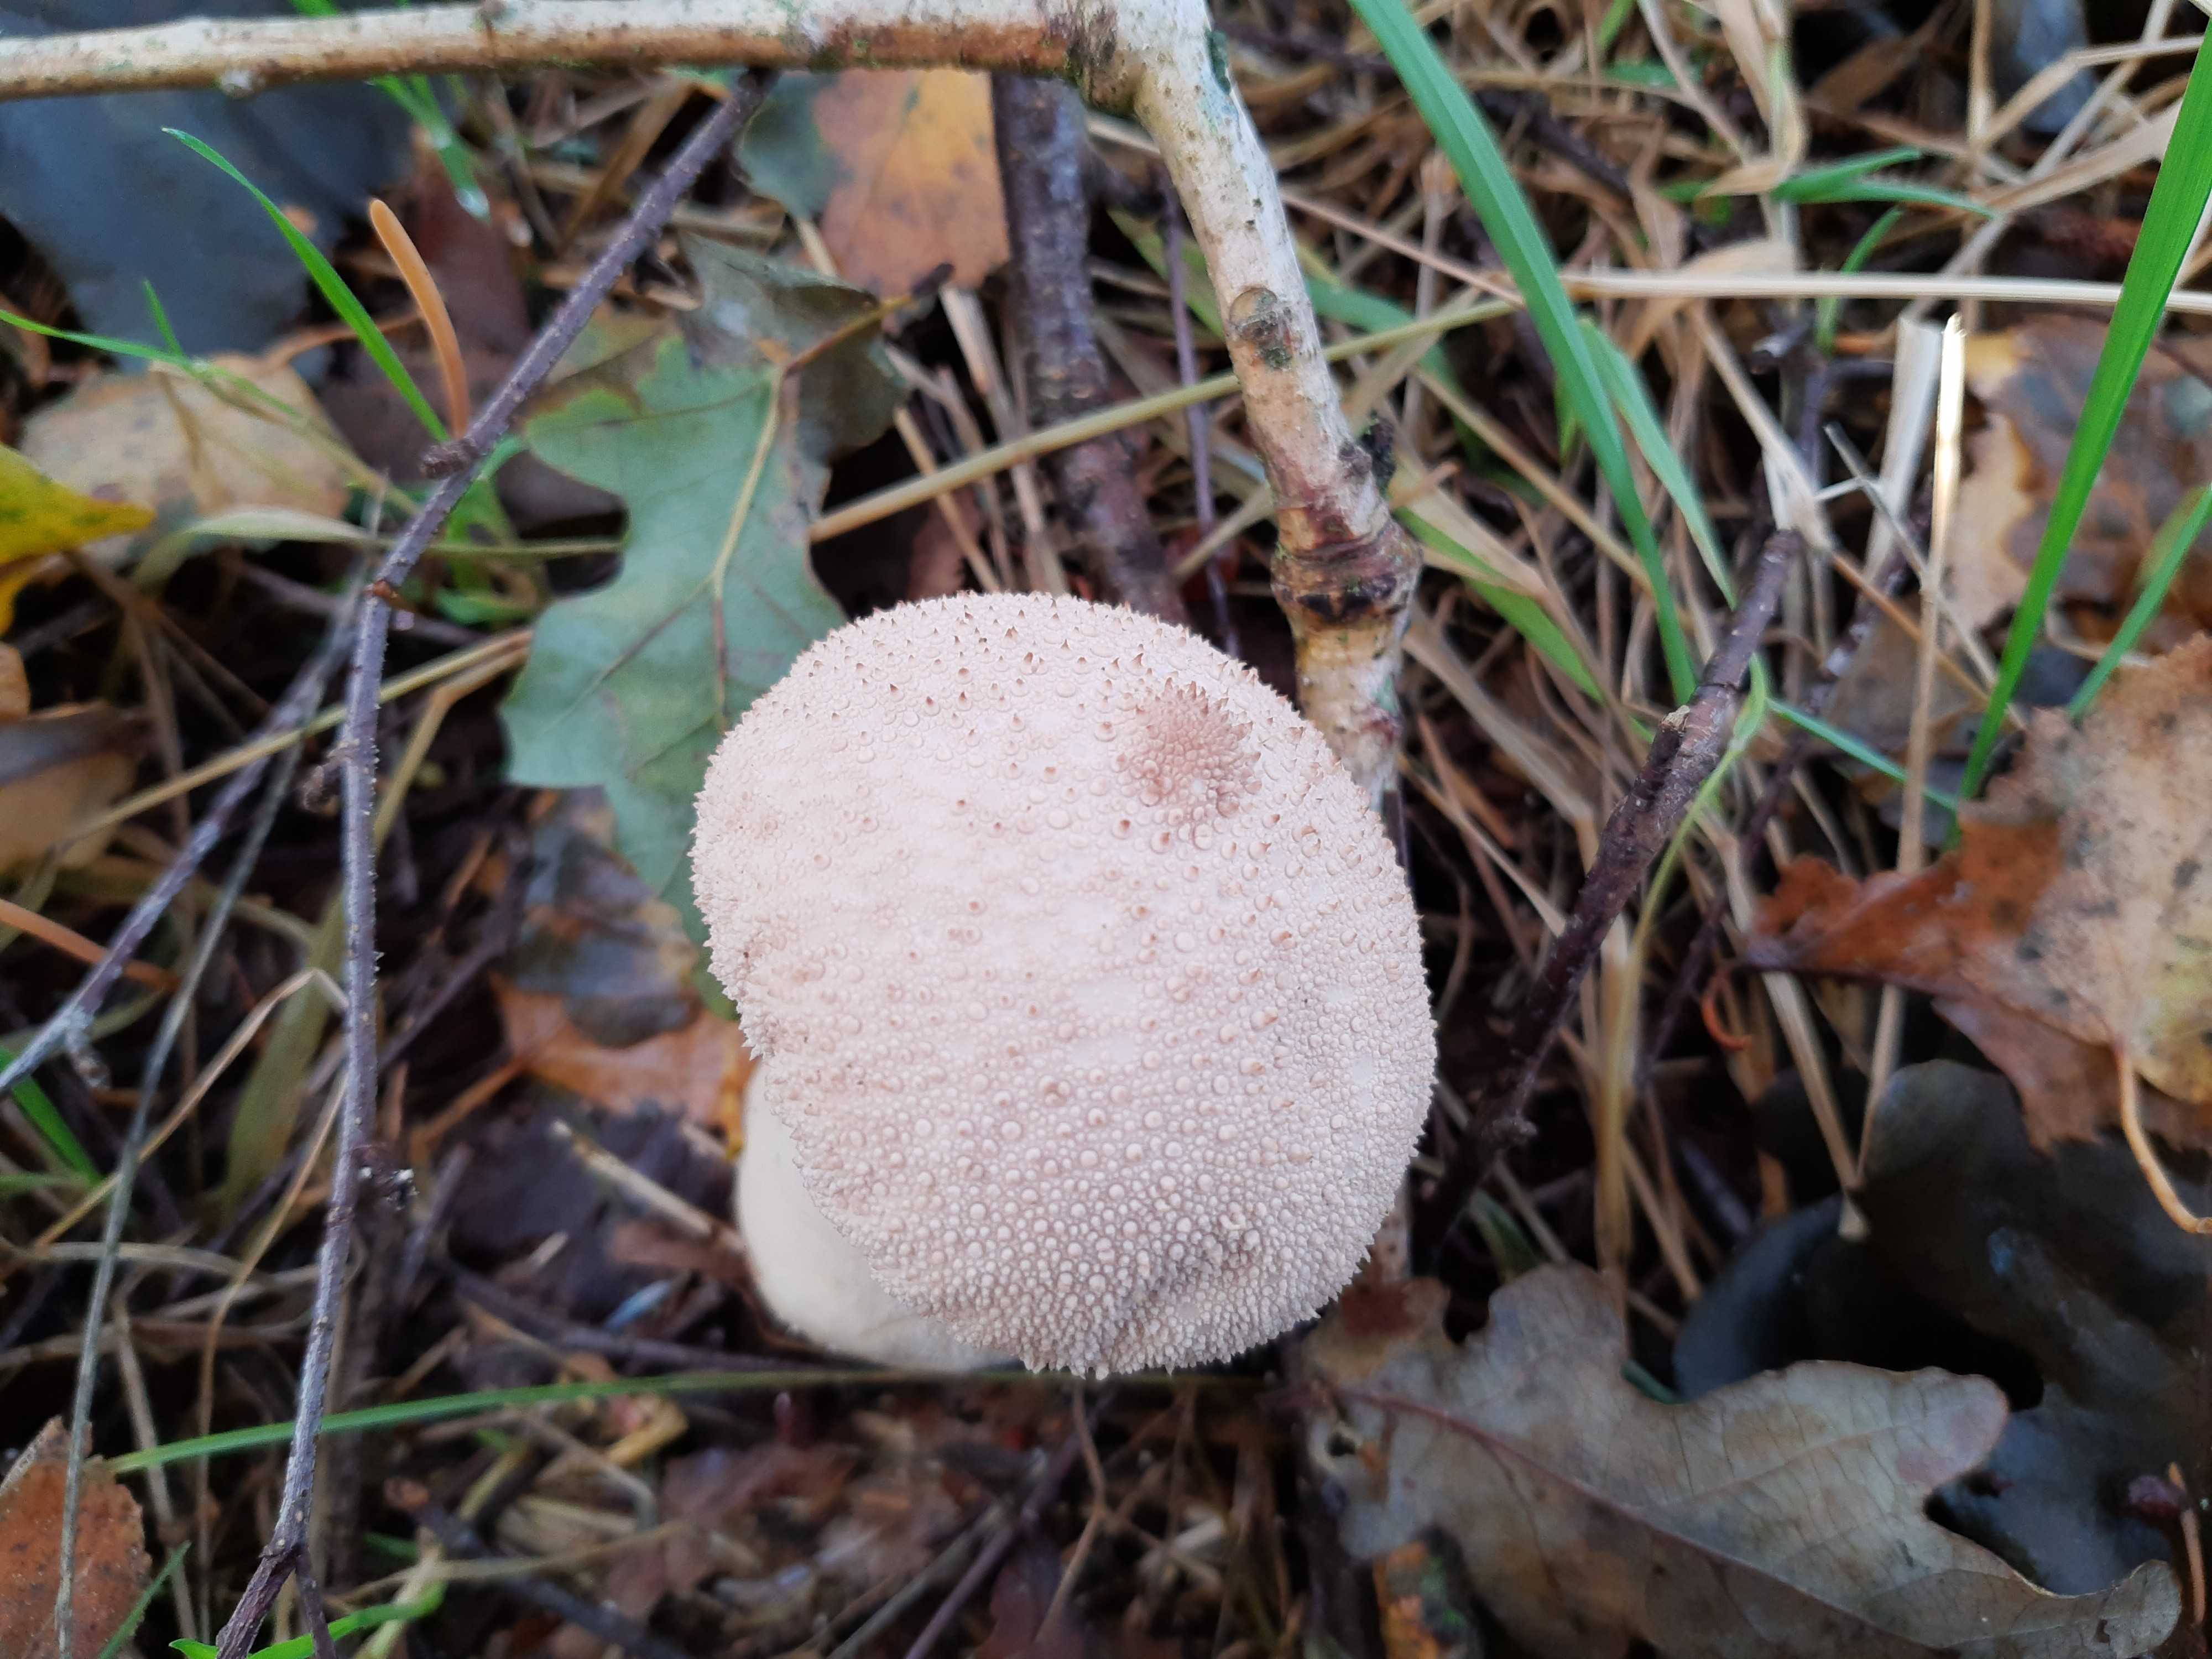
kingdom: Fungi
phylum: Basidiomycota
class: Agaricomycetes
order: Agaricales
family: Lycoperdaceae
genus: Lycoperdon
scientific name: Lycoperdon perlatum
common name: krystal-støvbold
